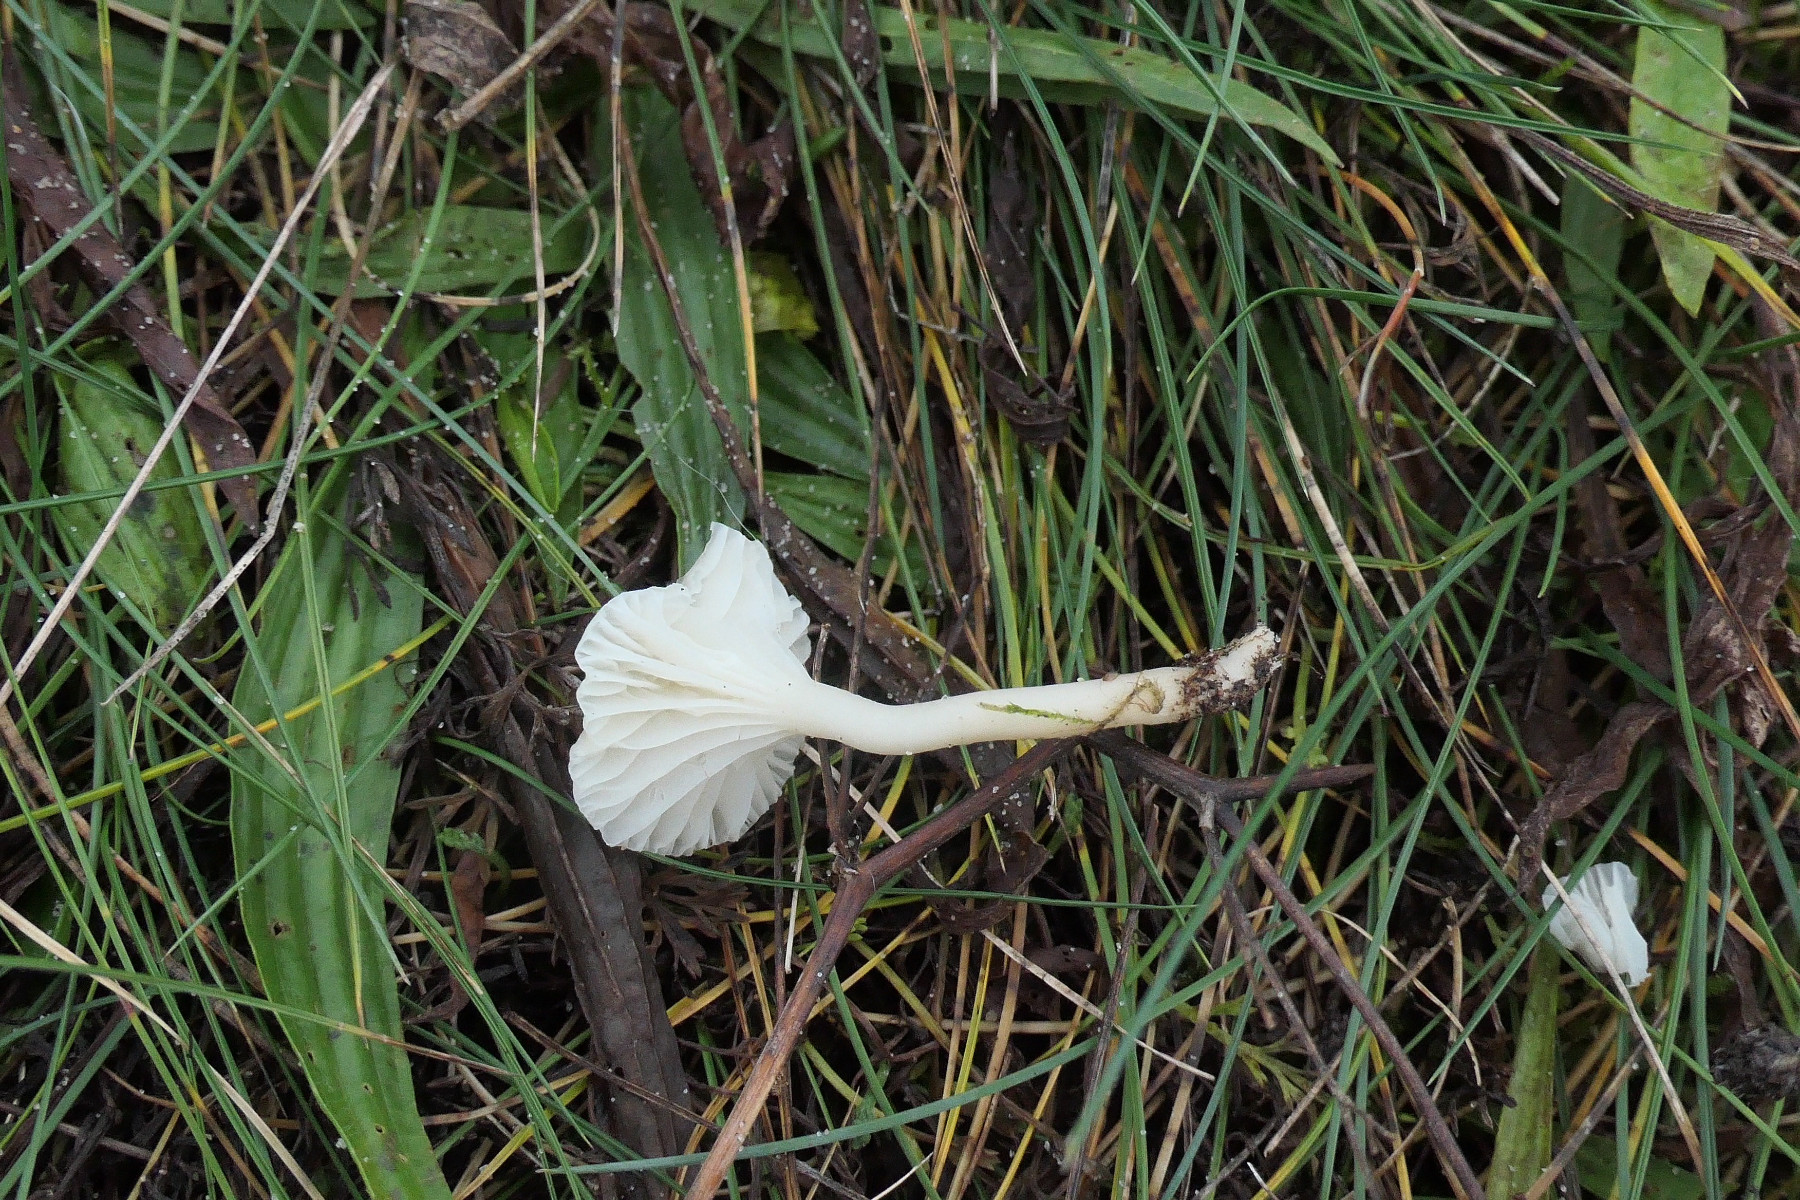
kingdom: Fungi
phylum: Basidiomycota
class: Agaricomycetes
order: Agaricales
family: Hygrophoraceae
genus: Cuphophyllus
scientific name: Cuphophyllus virgineus
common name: snehvid vokshat
